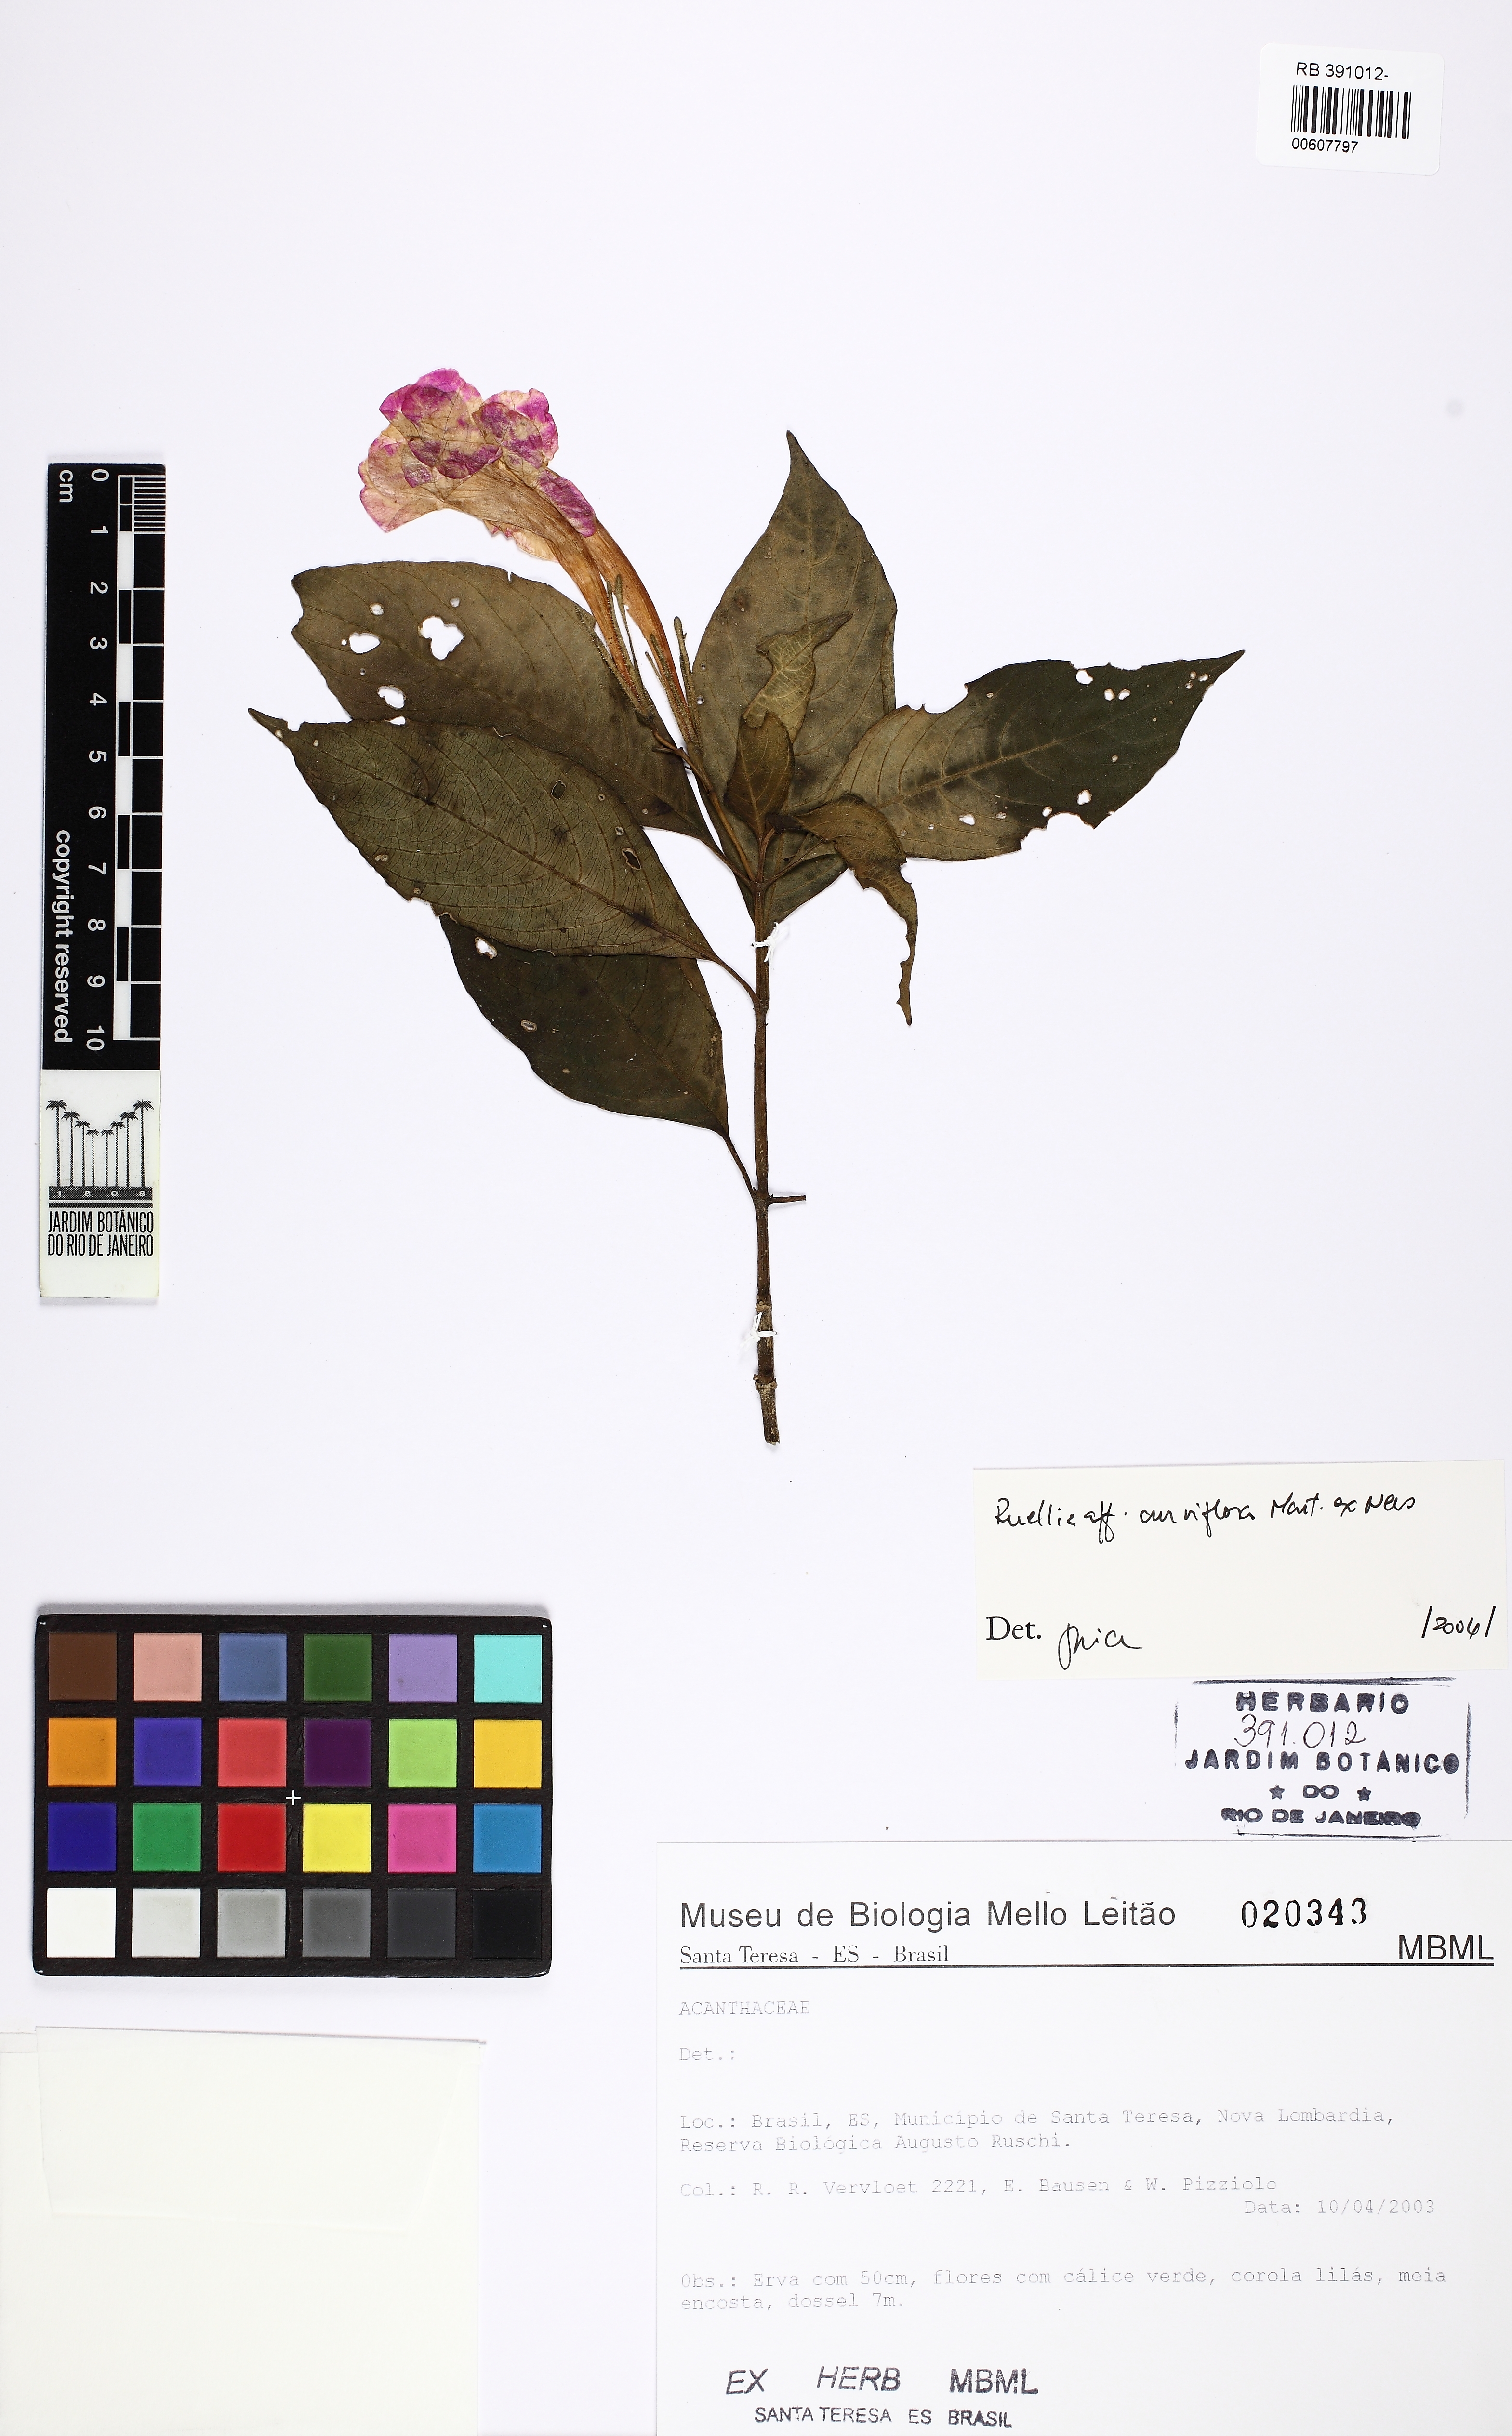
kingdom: Plantae
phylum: Tracheophyta
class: Magnoliopsida
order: Lamiales
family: Acanthaceae
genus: Ruellia
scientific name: Ruellia curviflora
